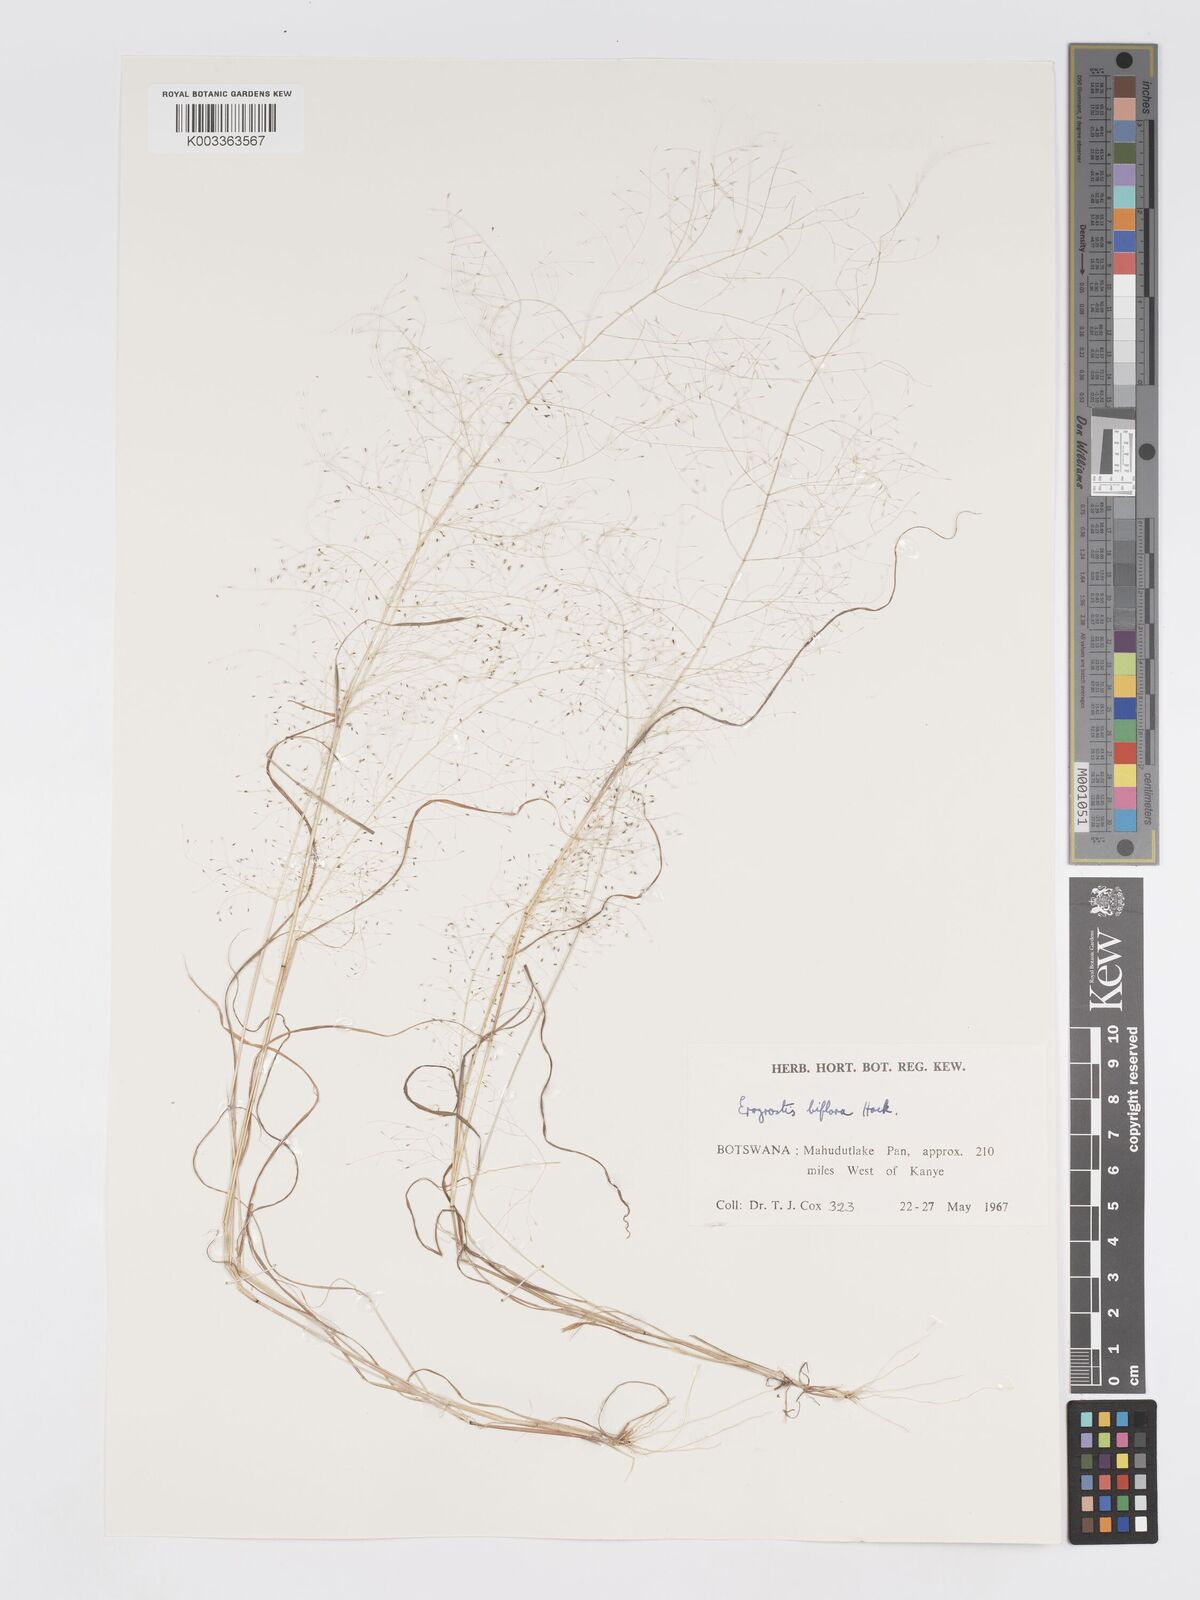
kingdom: Plantae
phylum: Tracheophyta
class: Liliopsida
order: Poales
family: Poaceae
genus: Eragrostis
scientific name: Eragrostis biflora
